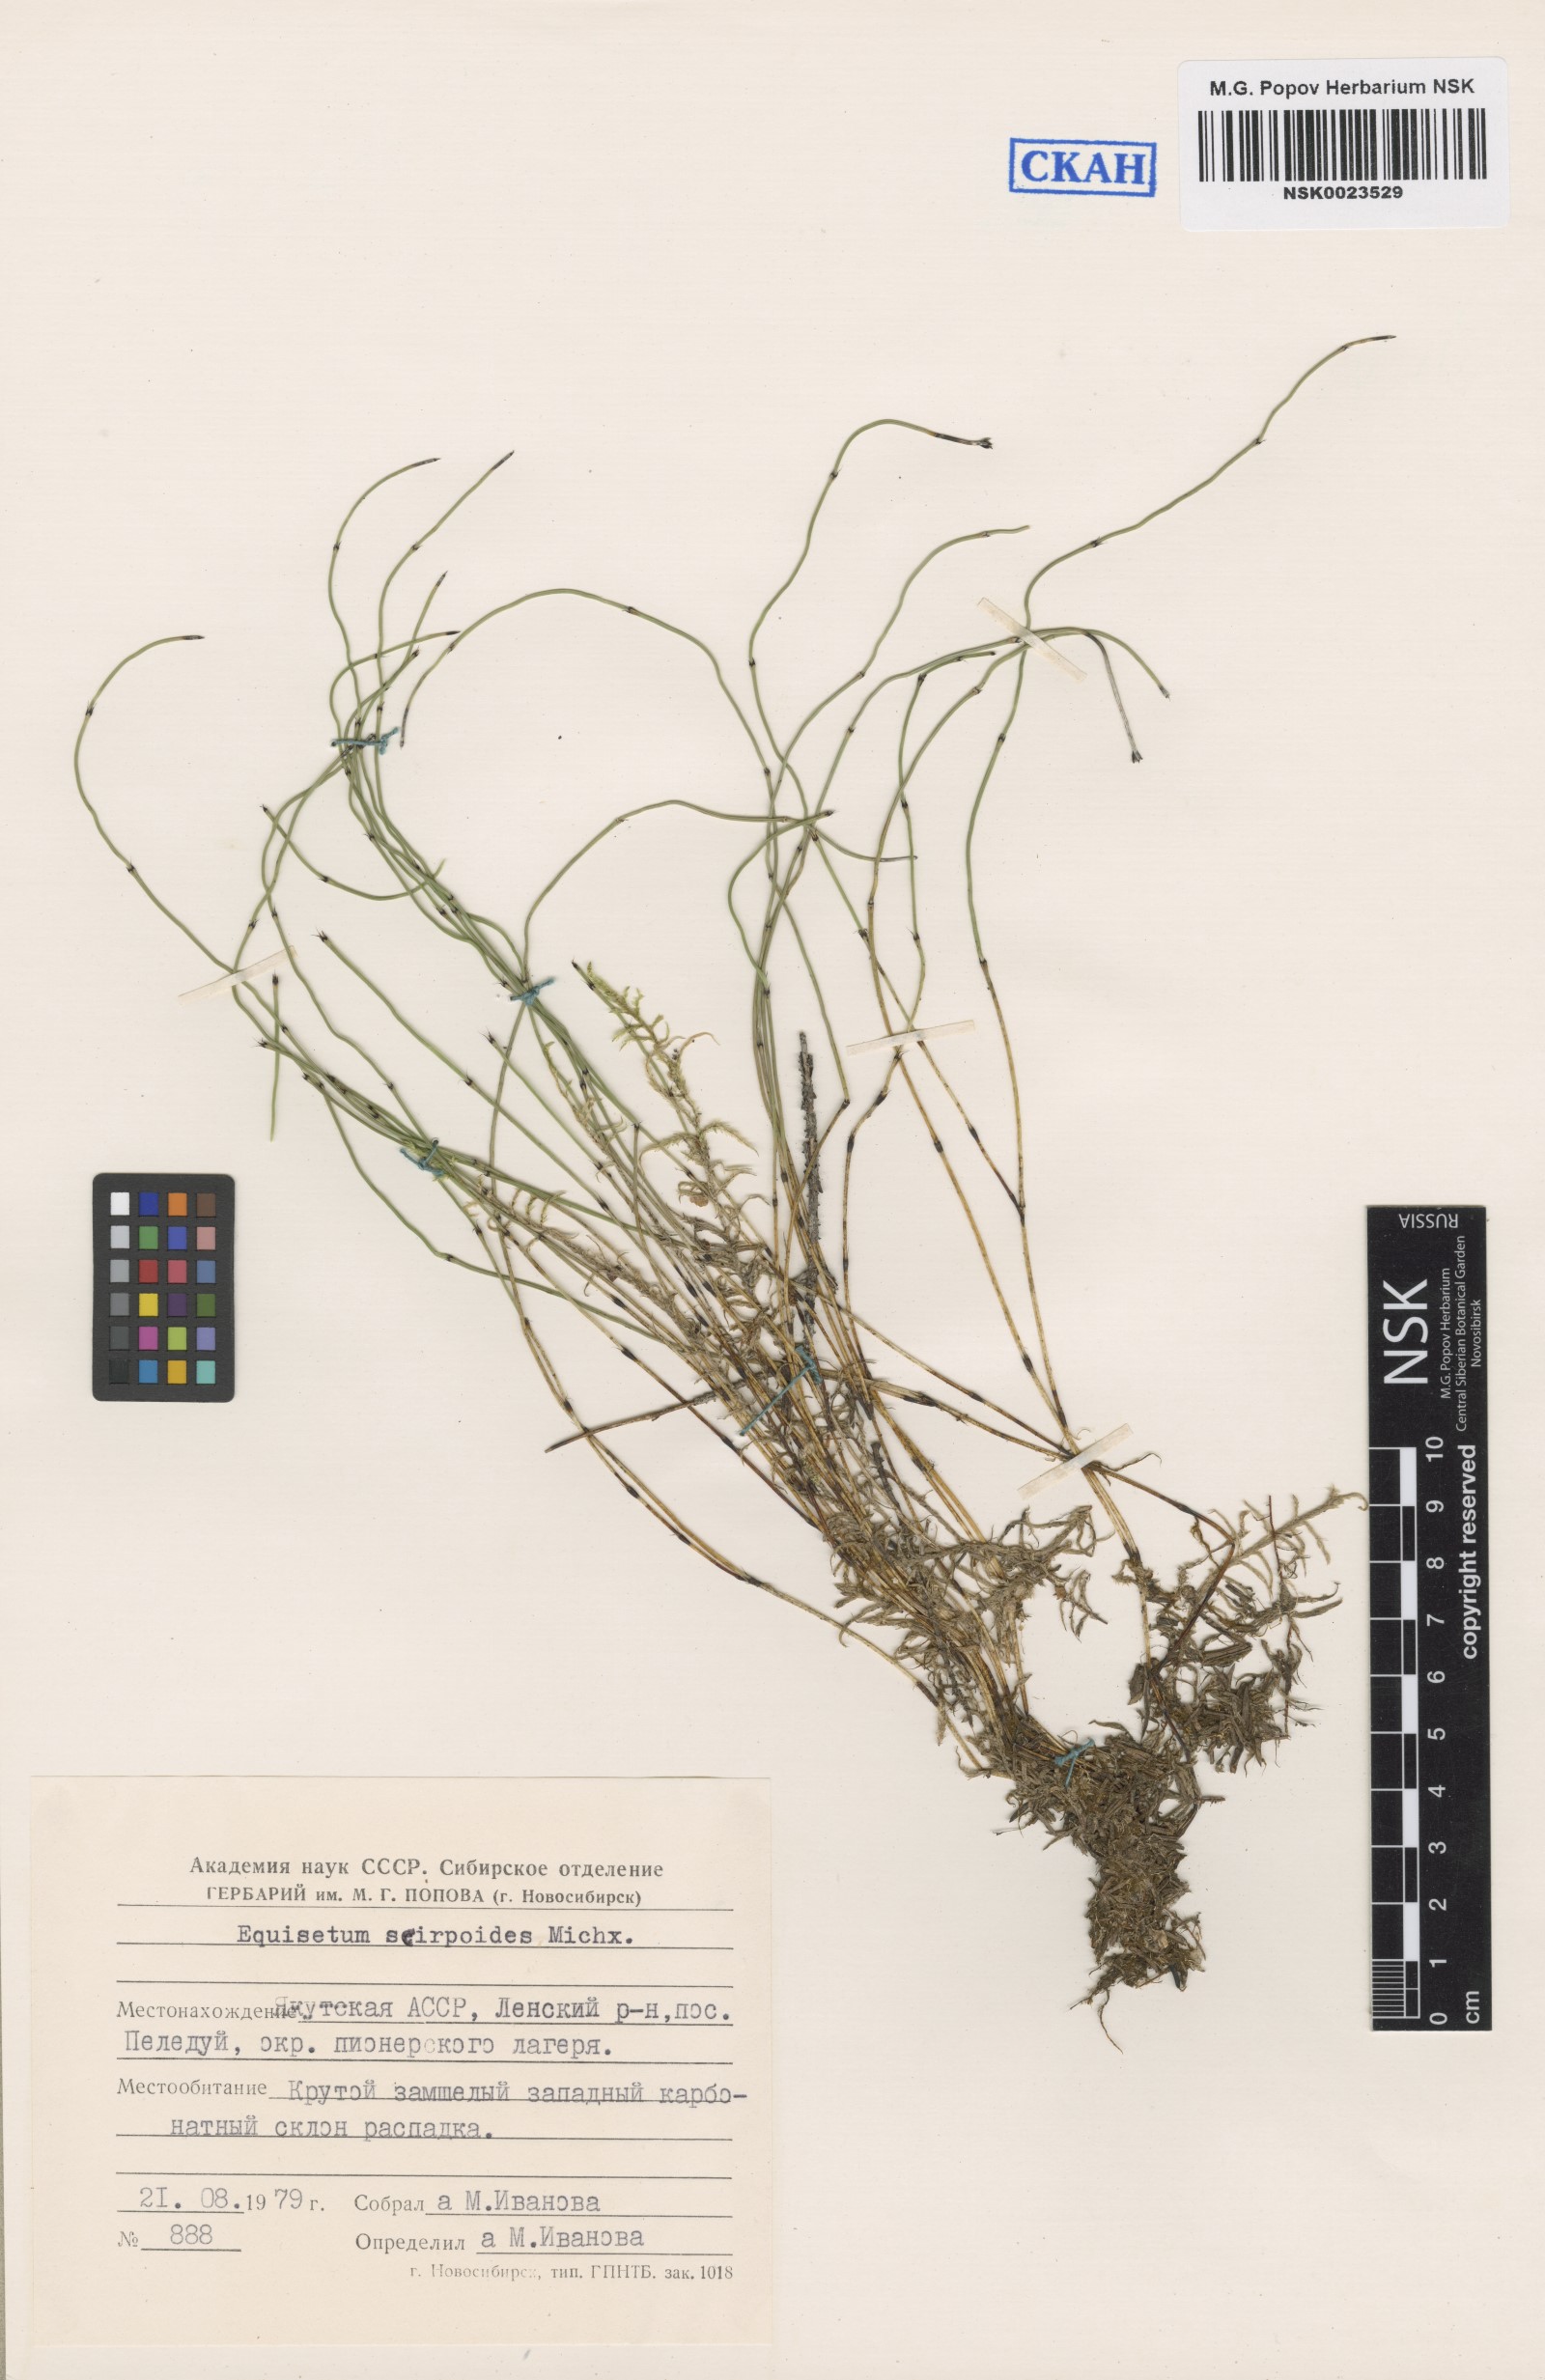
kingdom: Plantae
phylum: Tracheophyta
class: Polypodiopsida
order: Equisetales
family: Equisetaceae
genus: Equisetum
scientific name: Equisetum scirpoides
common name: Delicate horsetail
